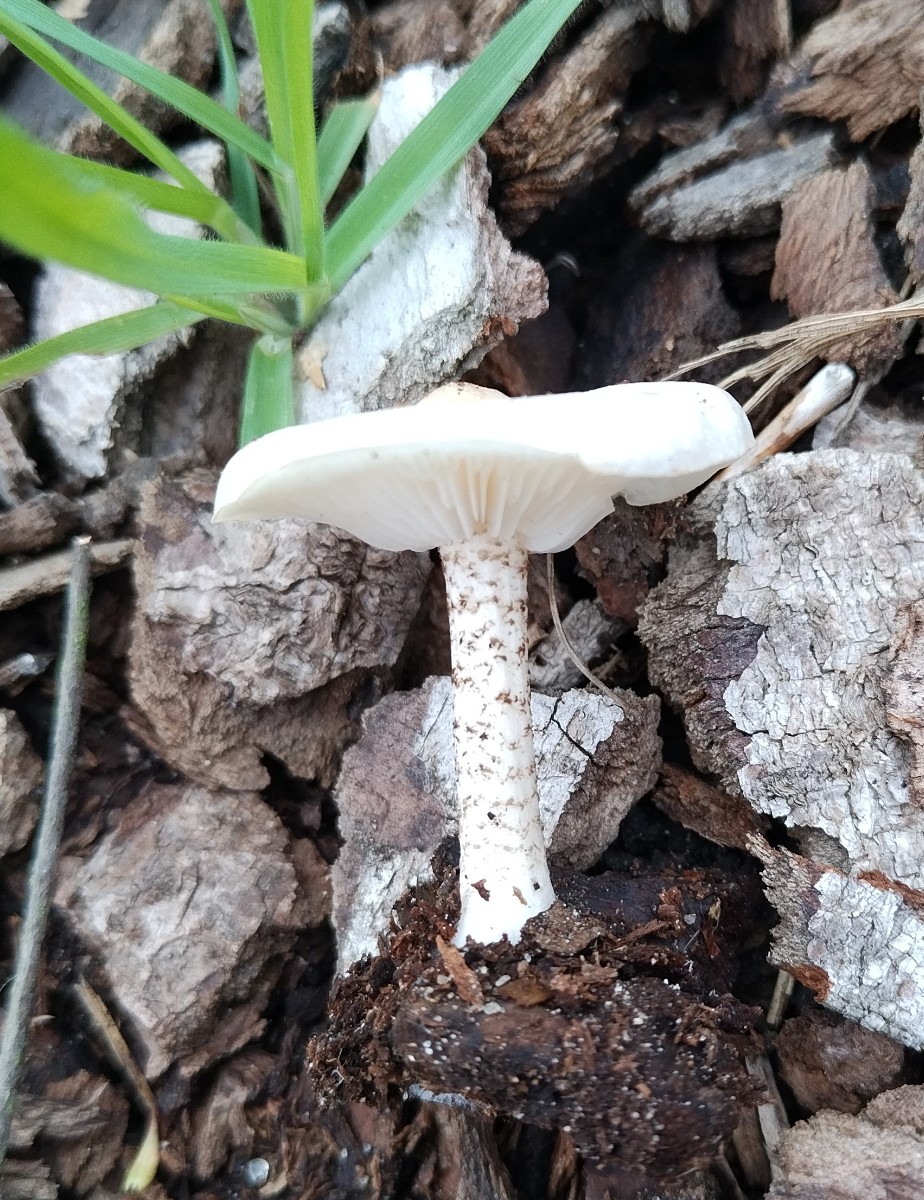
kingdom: Fungi
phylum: Basidiomycota
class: Agaricomycetes
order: Agaricales
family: Tricholomataceae
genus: Melanoleuca
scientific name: Melanoleuca verrucipes
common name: rufodet munkehat
